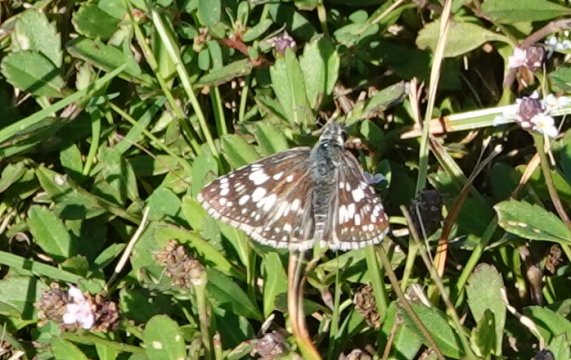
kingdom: Animalia
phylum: Arthropoda
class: Insecta
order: Lepidoptera
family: Hesperiidae
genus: Burnsius
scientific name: Burnsius albescens
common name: White Checkered-Skipper
